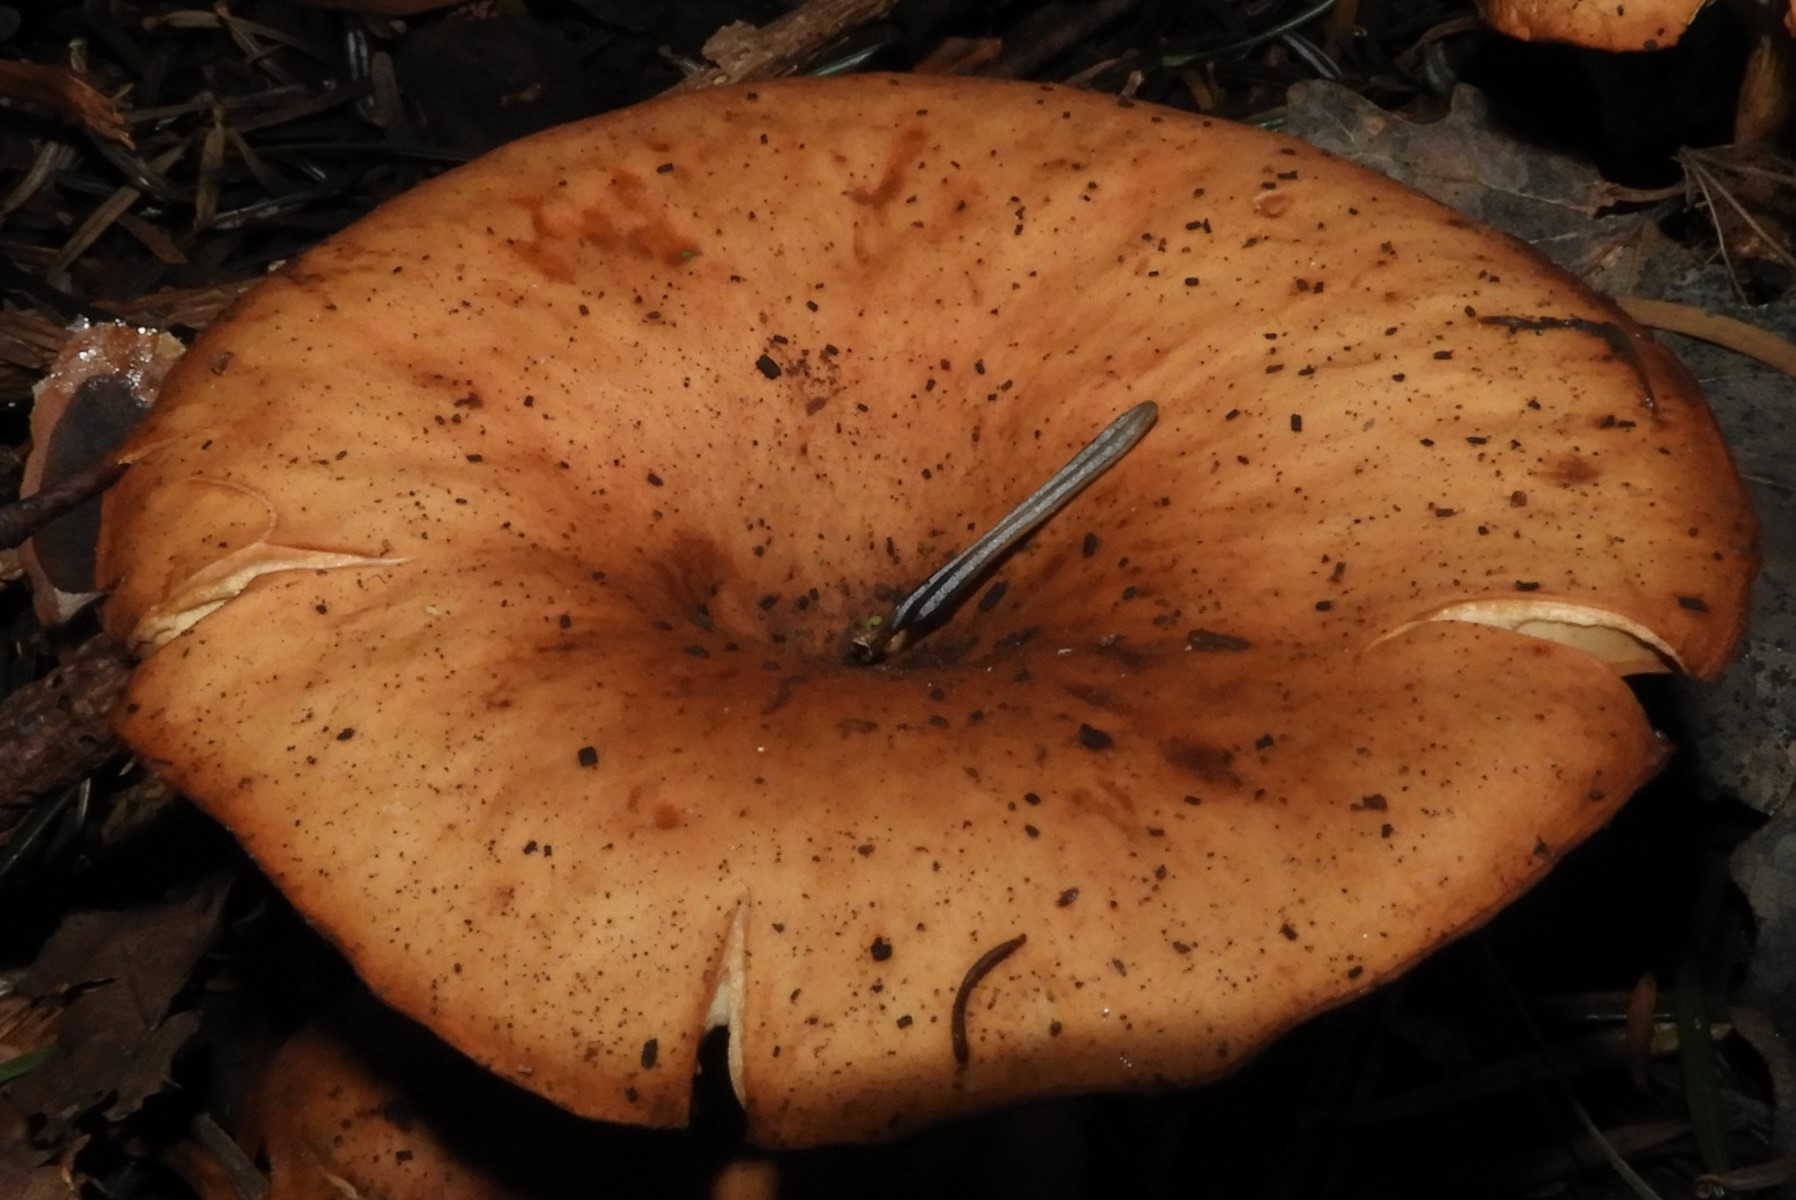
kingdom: Fungi
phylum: Basidiomycota
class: Agaricomycetes
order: Agaricales
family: Tricholomataceae
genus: Paralepista
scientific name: Paralepista flaccida
